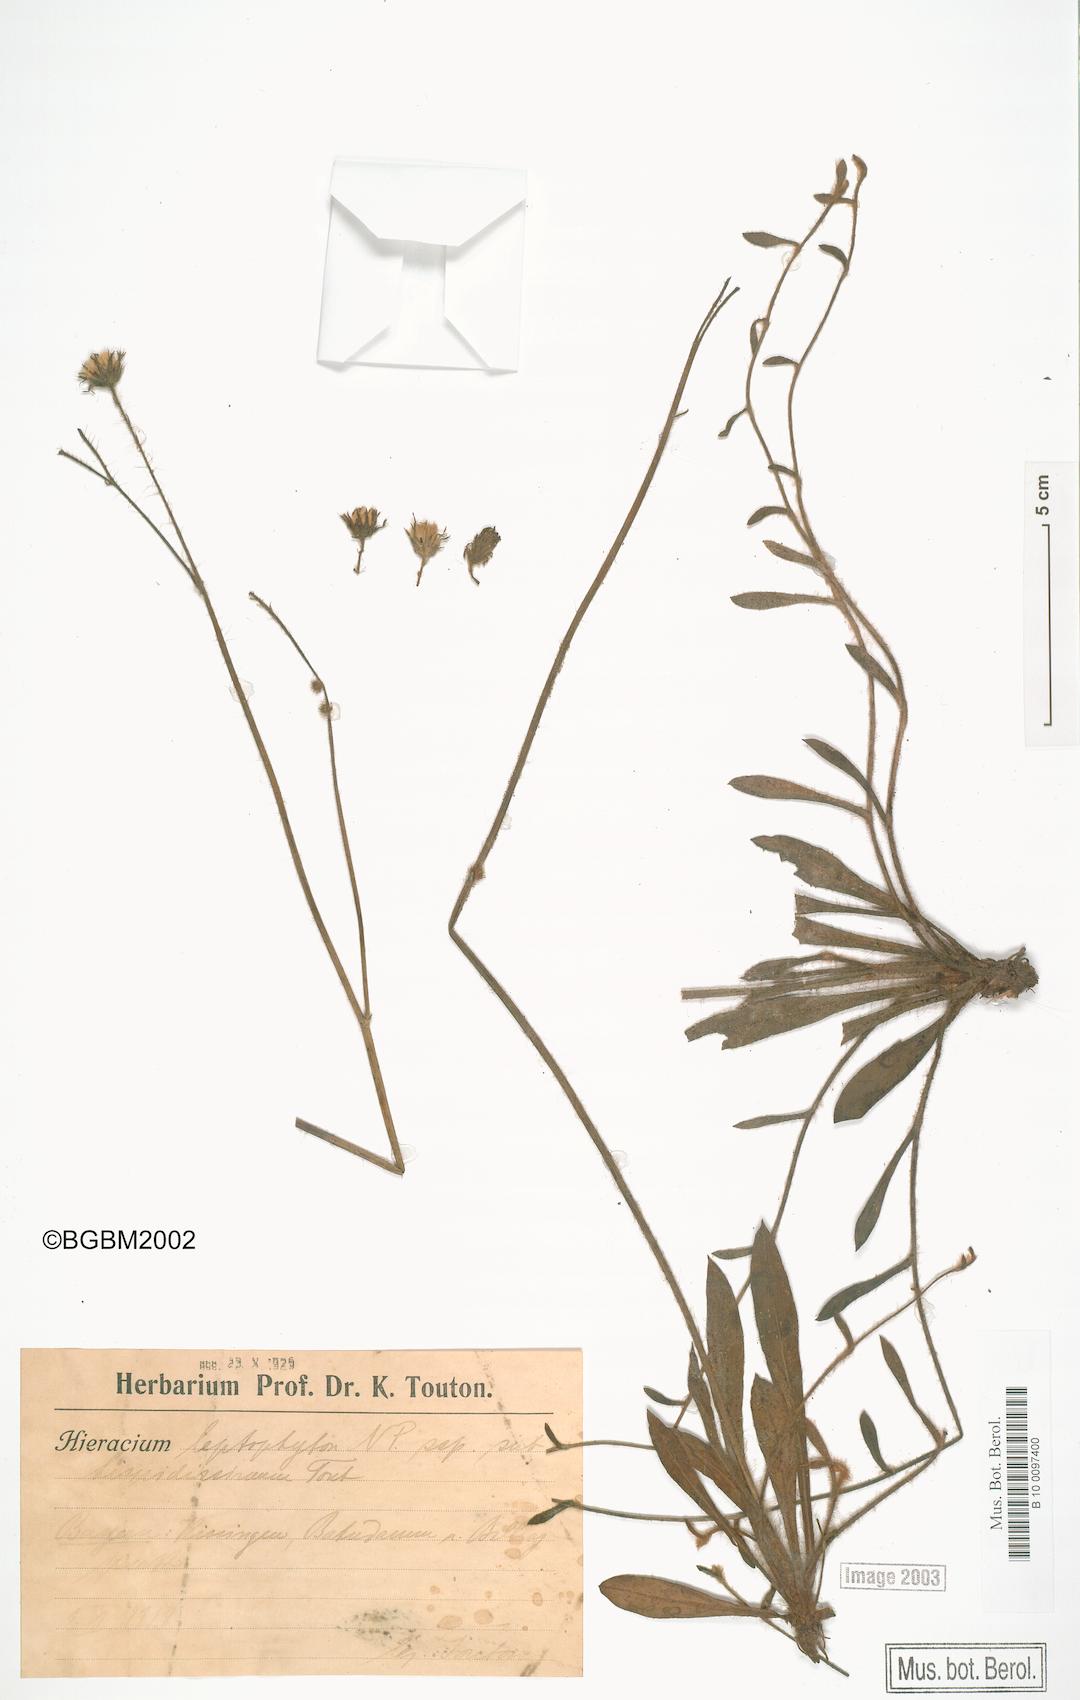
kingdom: Plantae
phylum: Tracheophyta
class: Magnoliopsida
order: Asterales
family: Asteraceae
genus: Pilosella
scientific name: Pilosella fallacina
